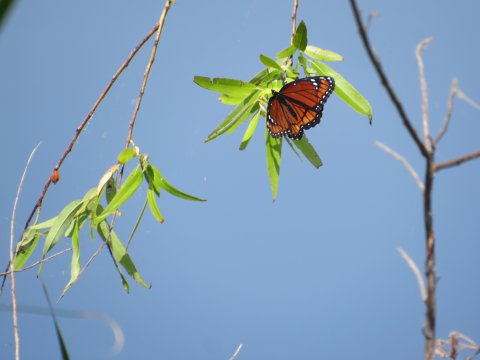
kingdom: Animalia
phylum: Arthropoda
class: Insecta
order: Lepidoptera
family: Nymphalidae
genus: Limenitis
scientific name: Limenitis archippus
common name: Viceroy
